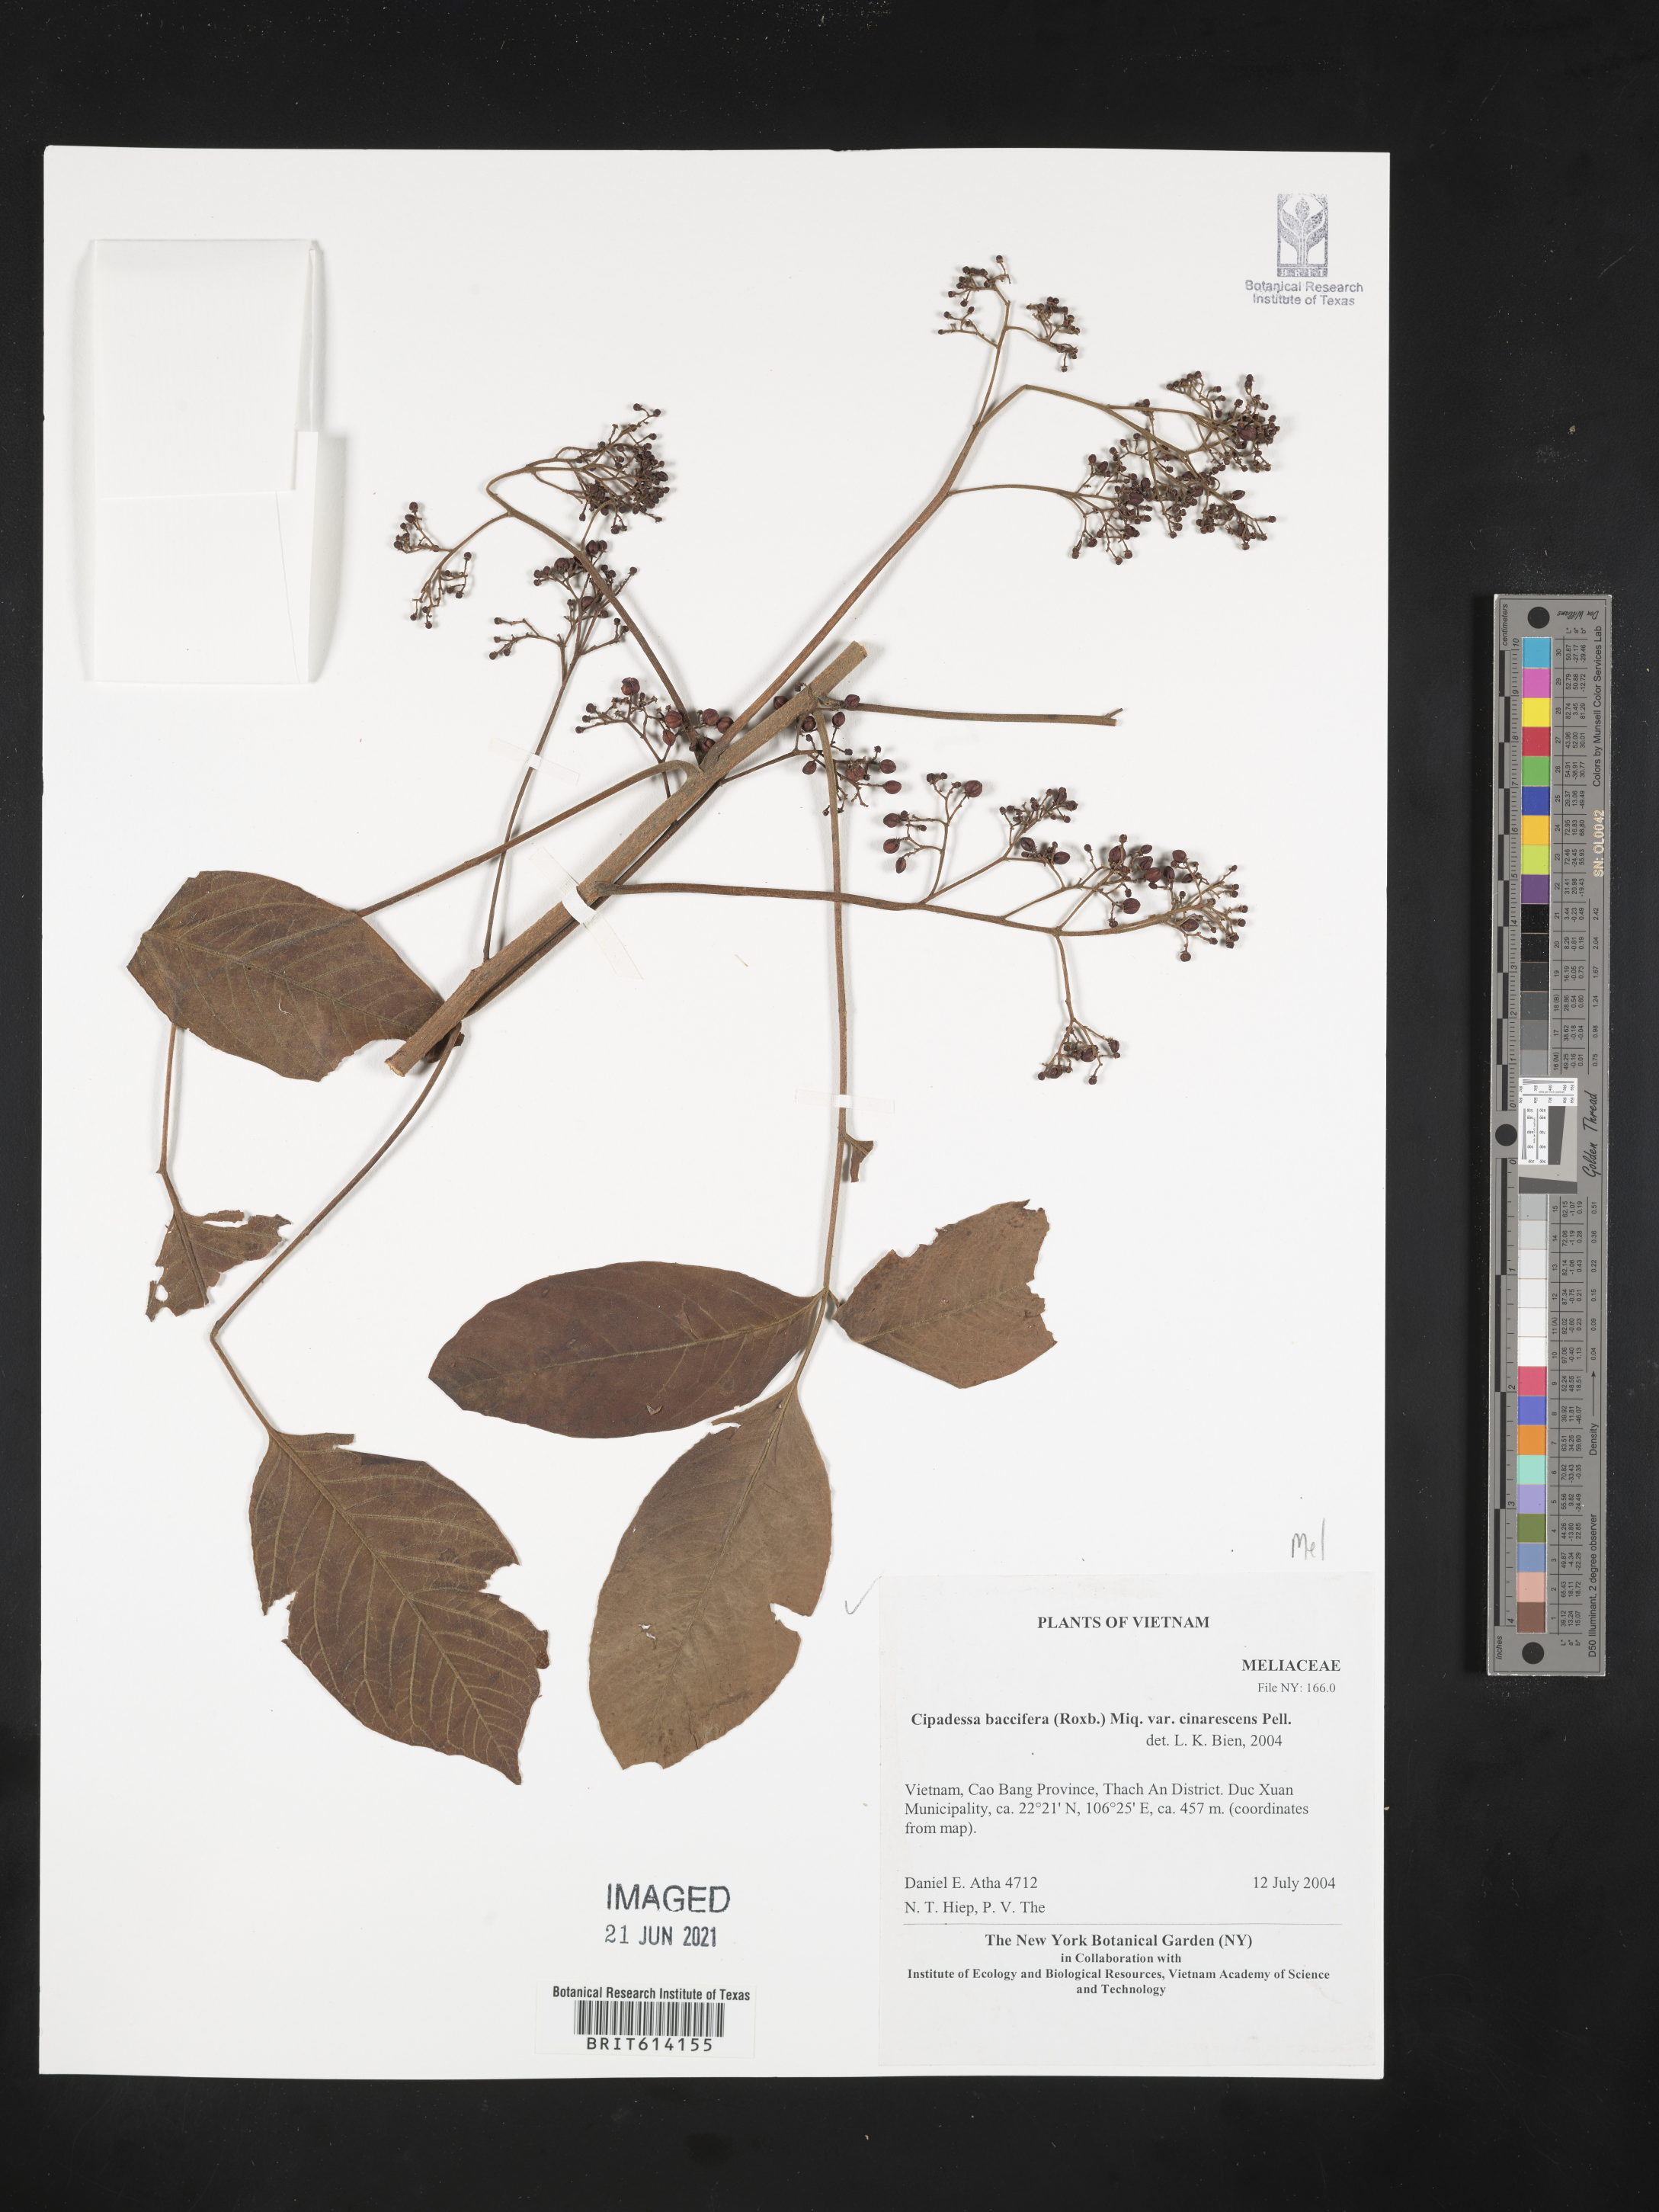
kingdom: Plantae
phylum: Tracheophyta
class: Magnoliopsida
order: Sapindales
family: Meliaceae
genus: Cipadessa
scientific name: Cipadessa baccifera
